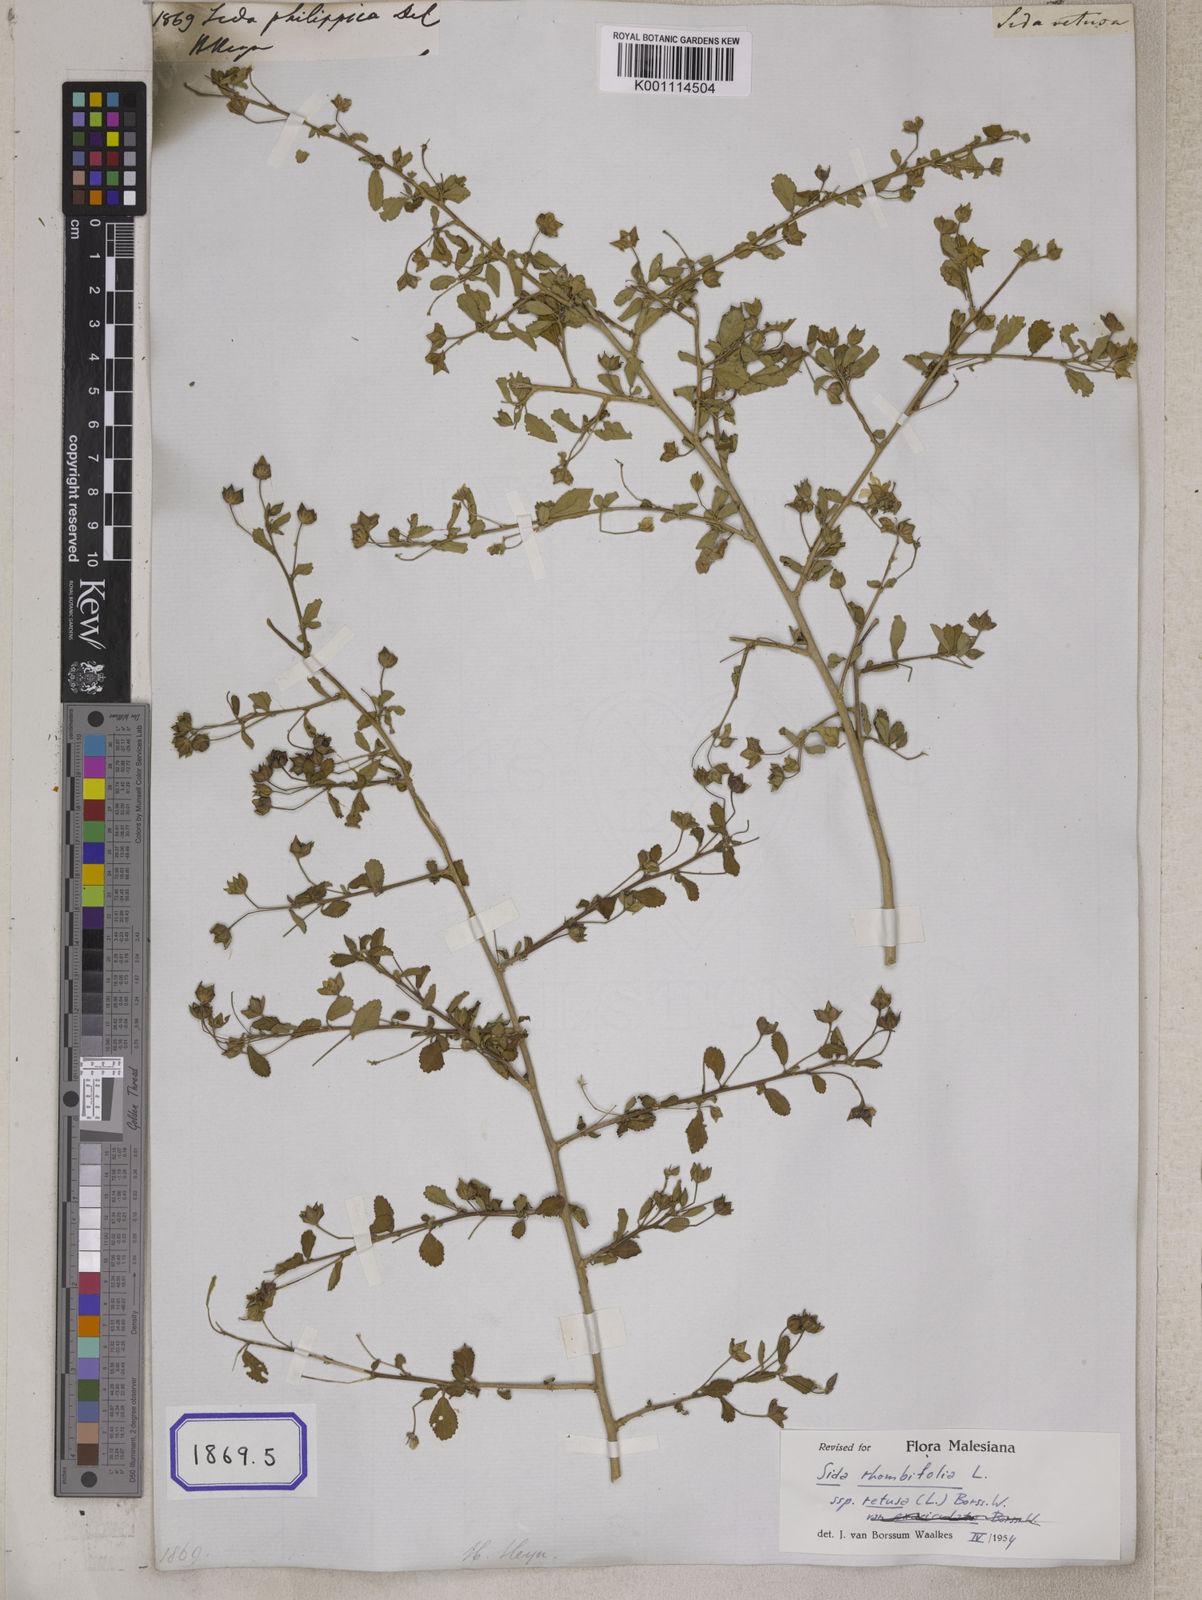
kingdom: Plantae
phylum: Tracheophyta
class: Magnoliopsida
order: Malvales
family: Malvaceae
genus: Sida
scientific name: Sida rhombifolia
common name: Queensland-hemp
